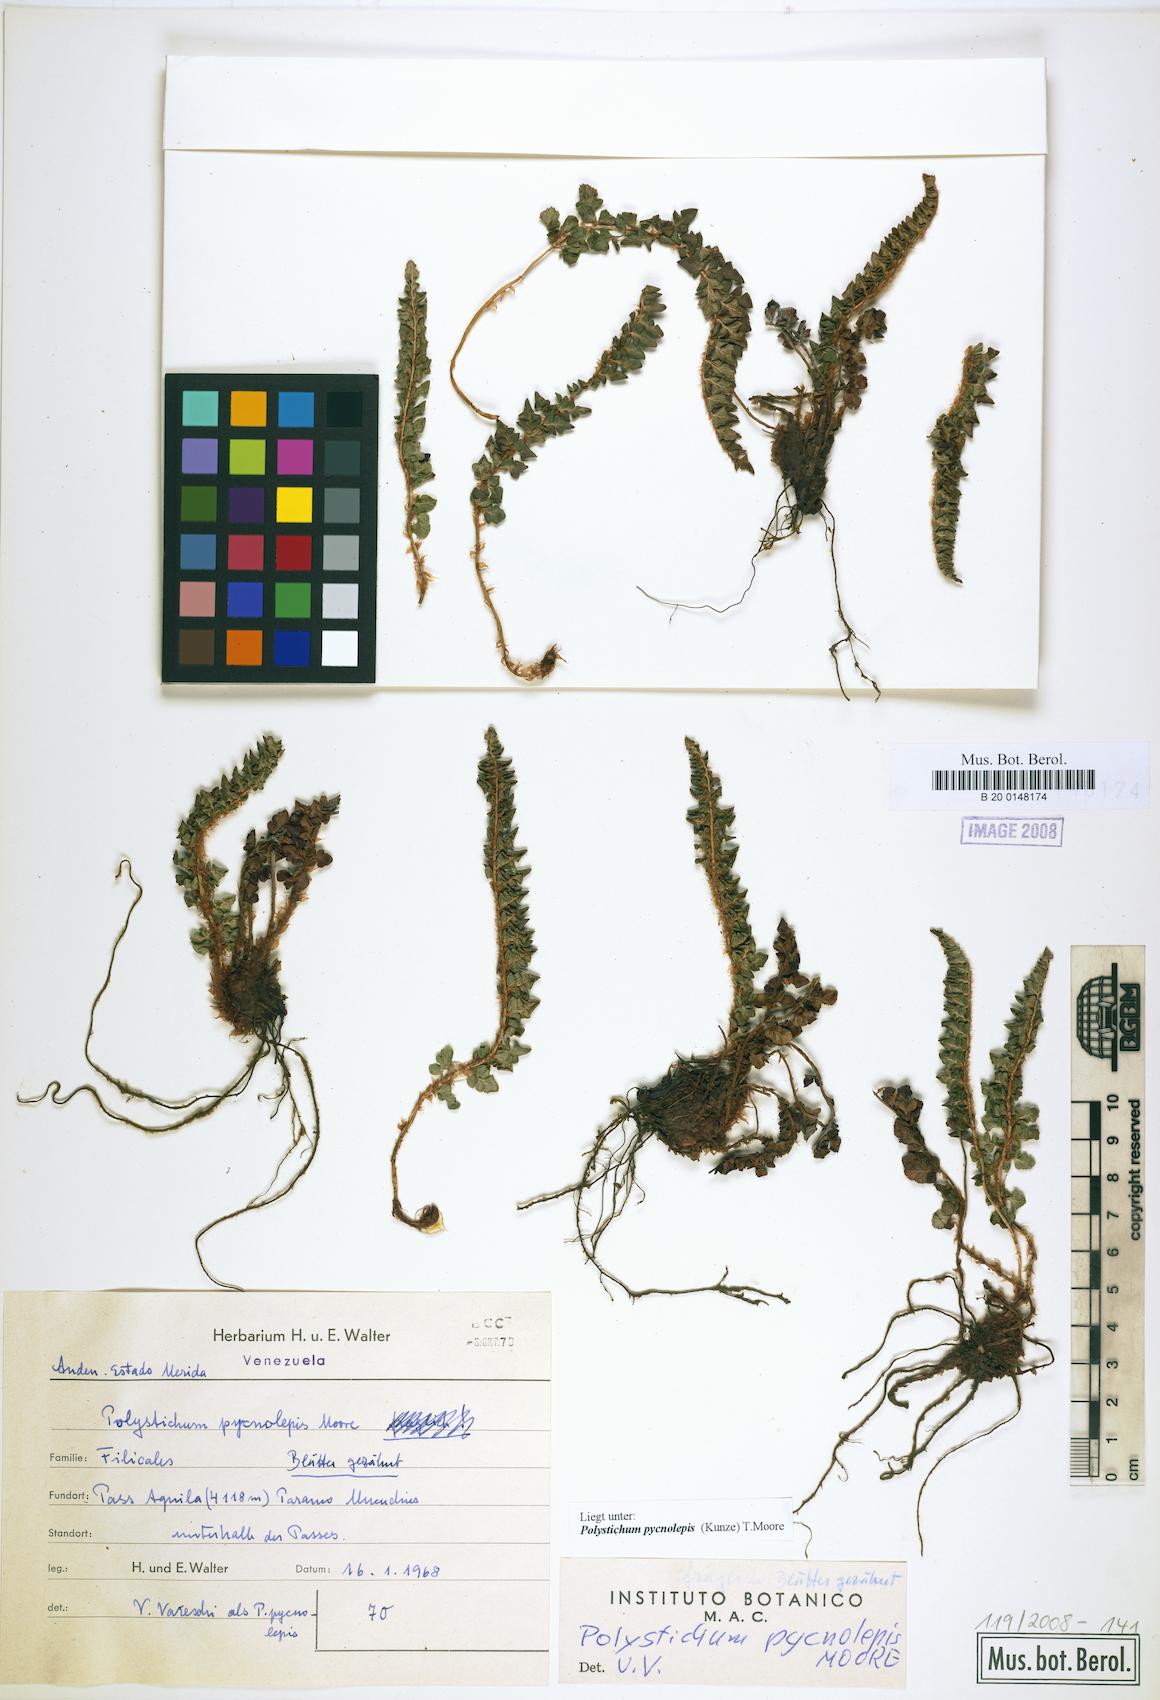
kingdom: Plantae
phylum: Tracheophyta
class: Polypodiopsida
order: Polypodiales
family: Dryopteridaceae
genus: Polystichum
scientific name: Polystichum pycnolepis
